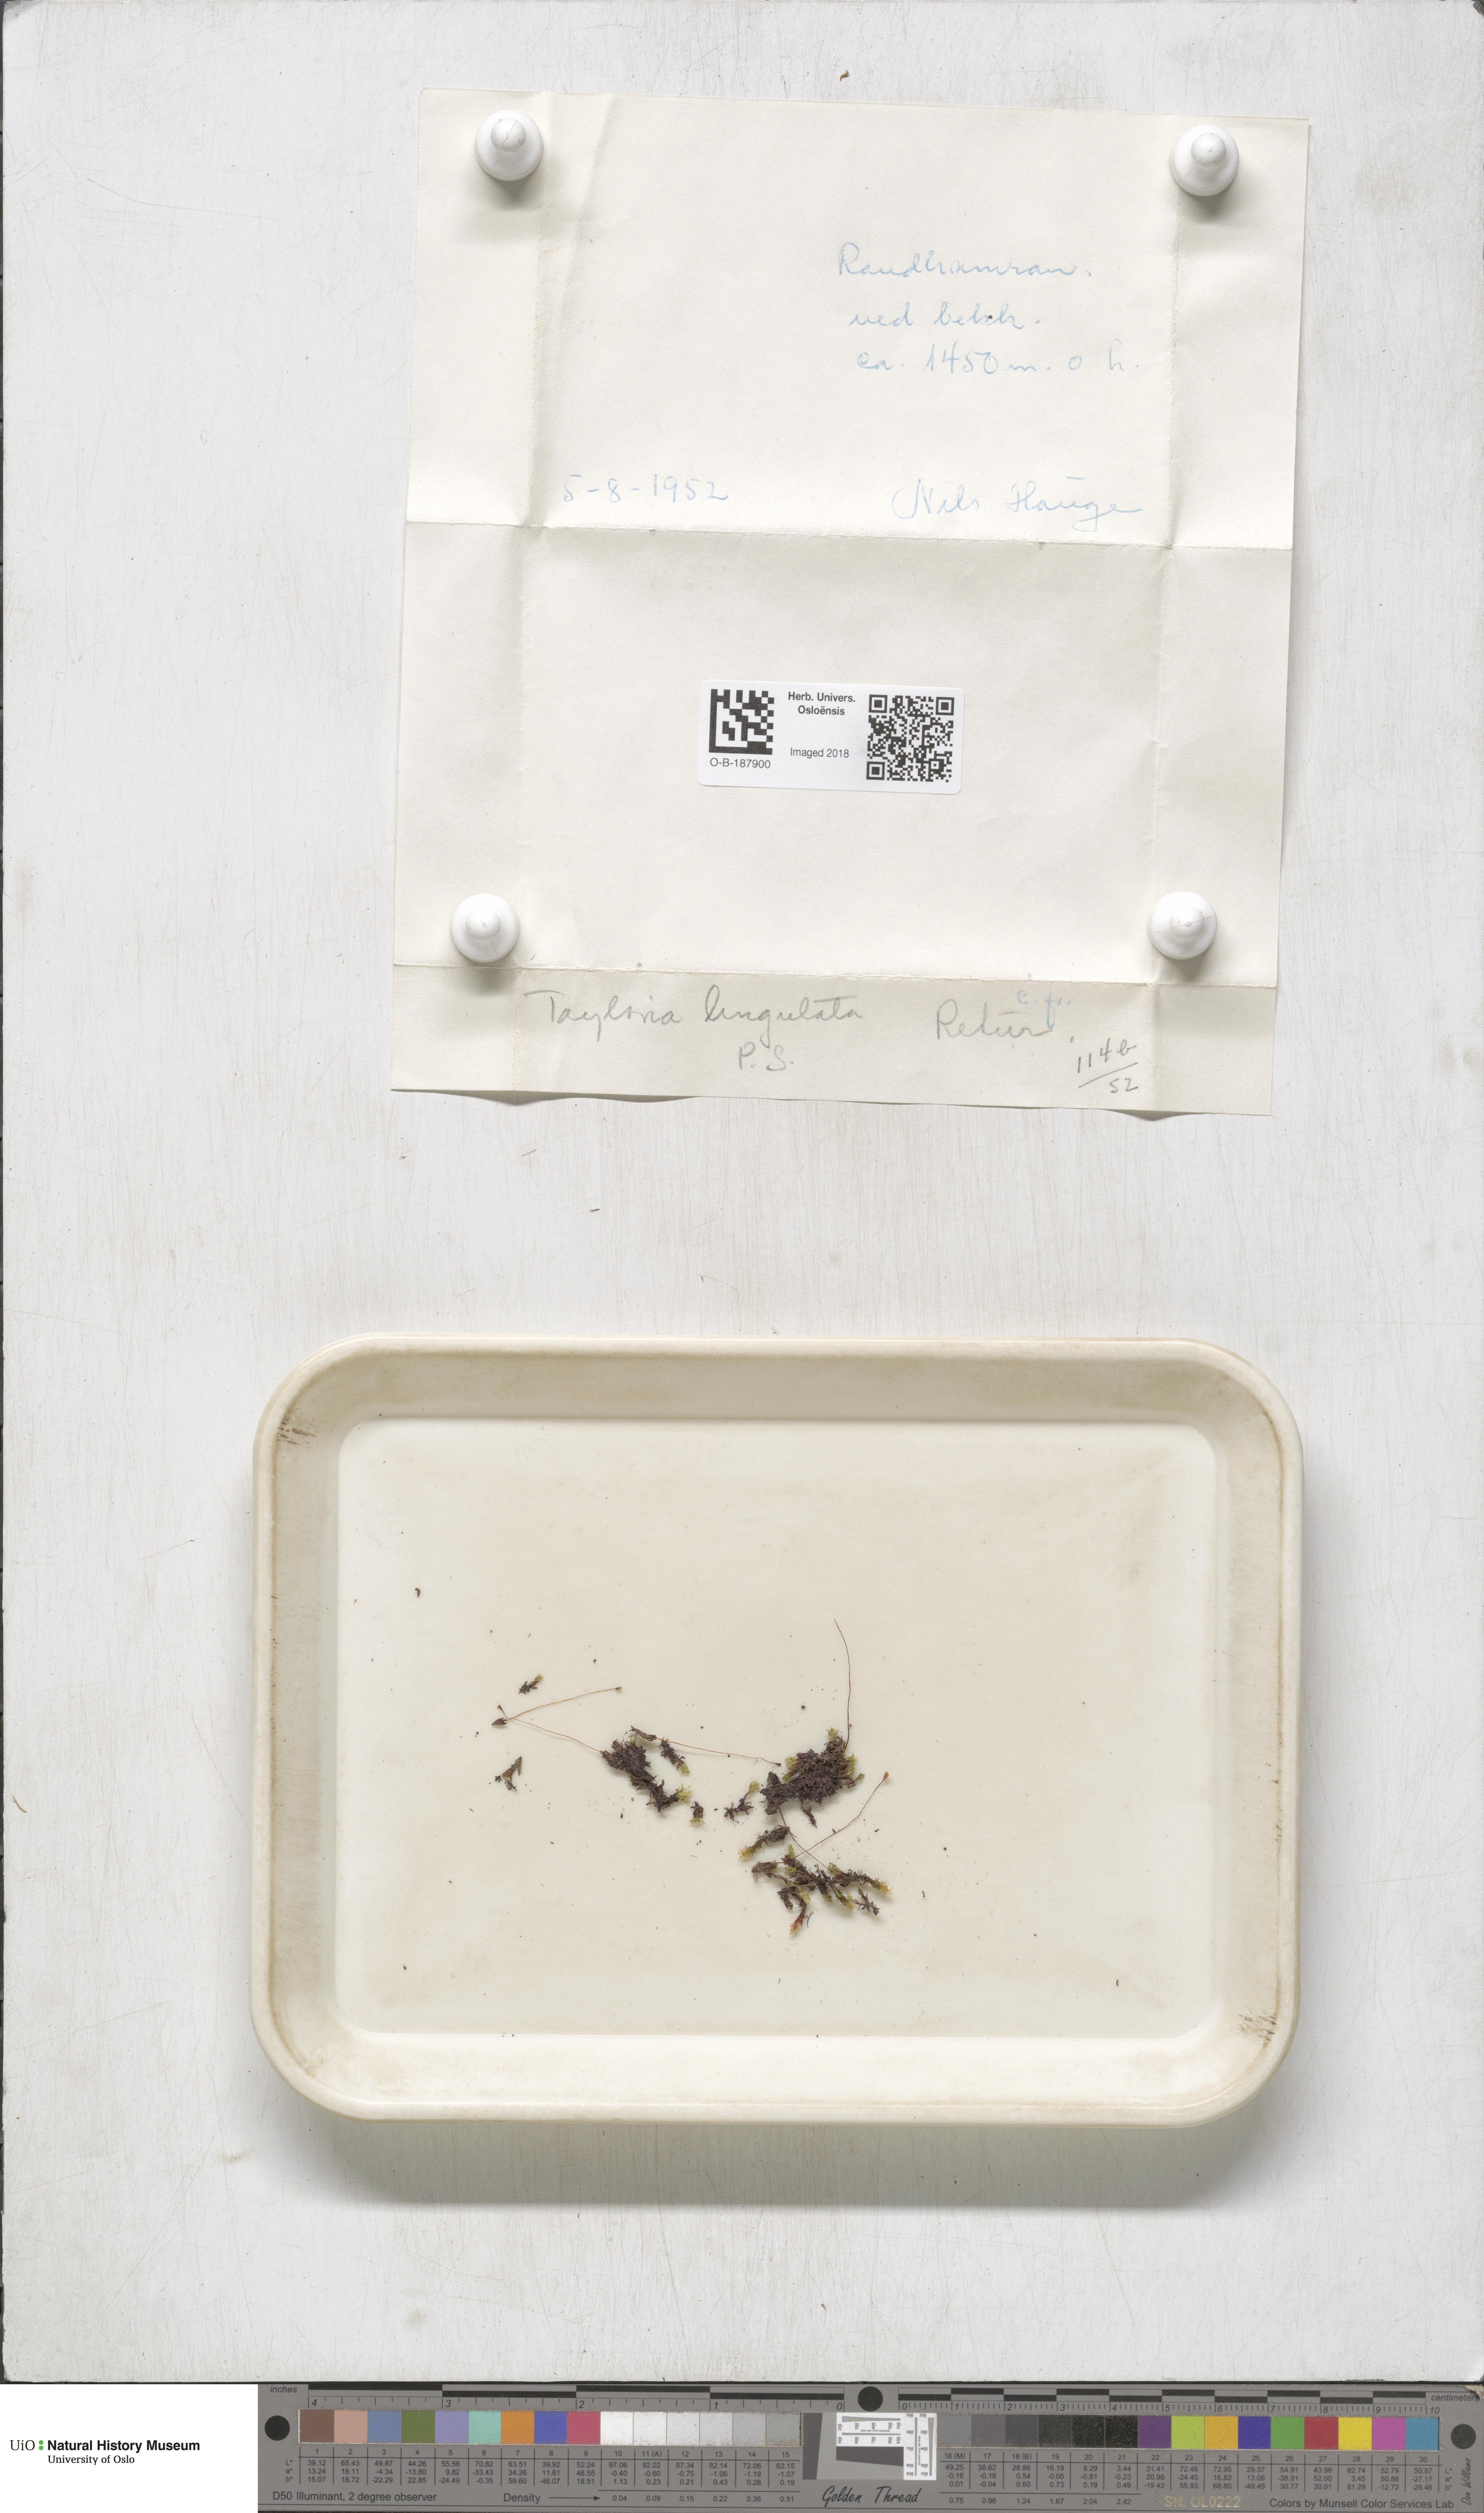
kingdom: Plantae
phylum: Bryophyta
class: Bryopsida
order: Splachnales
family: Splachnaceae
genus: Tayloria
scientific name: Tayloria lingulata
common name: Tongue-leaved trumpet moss
